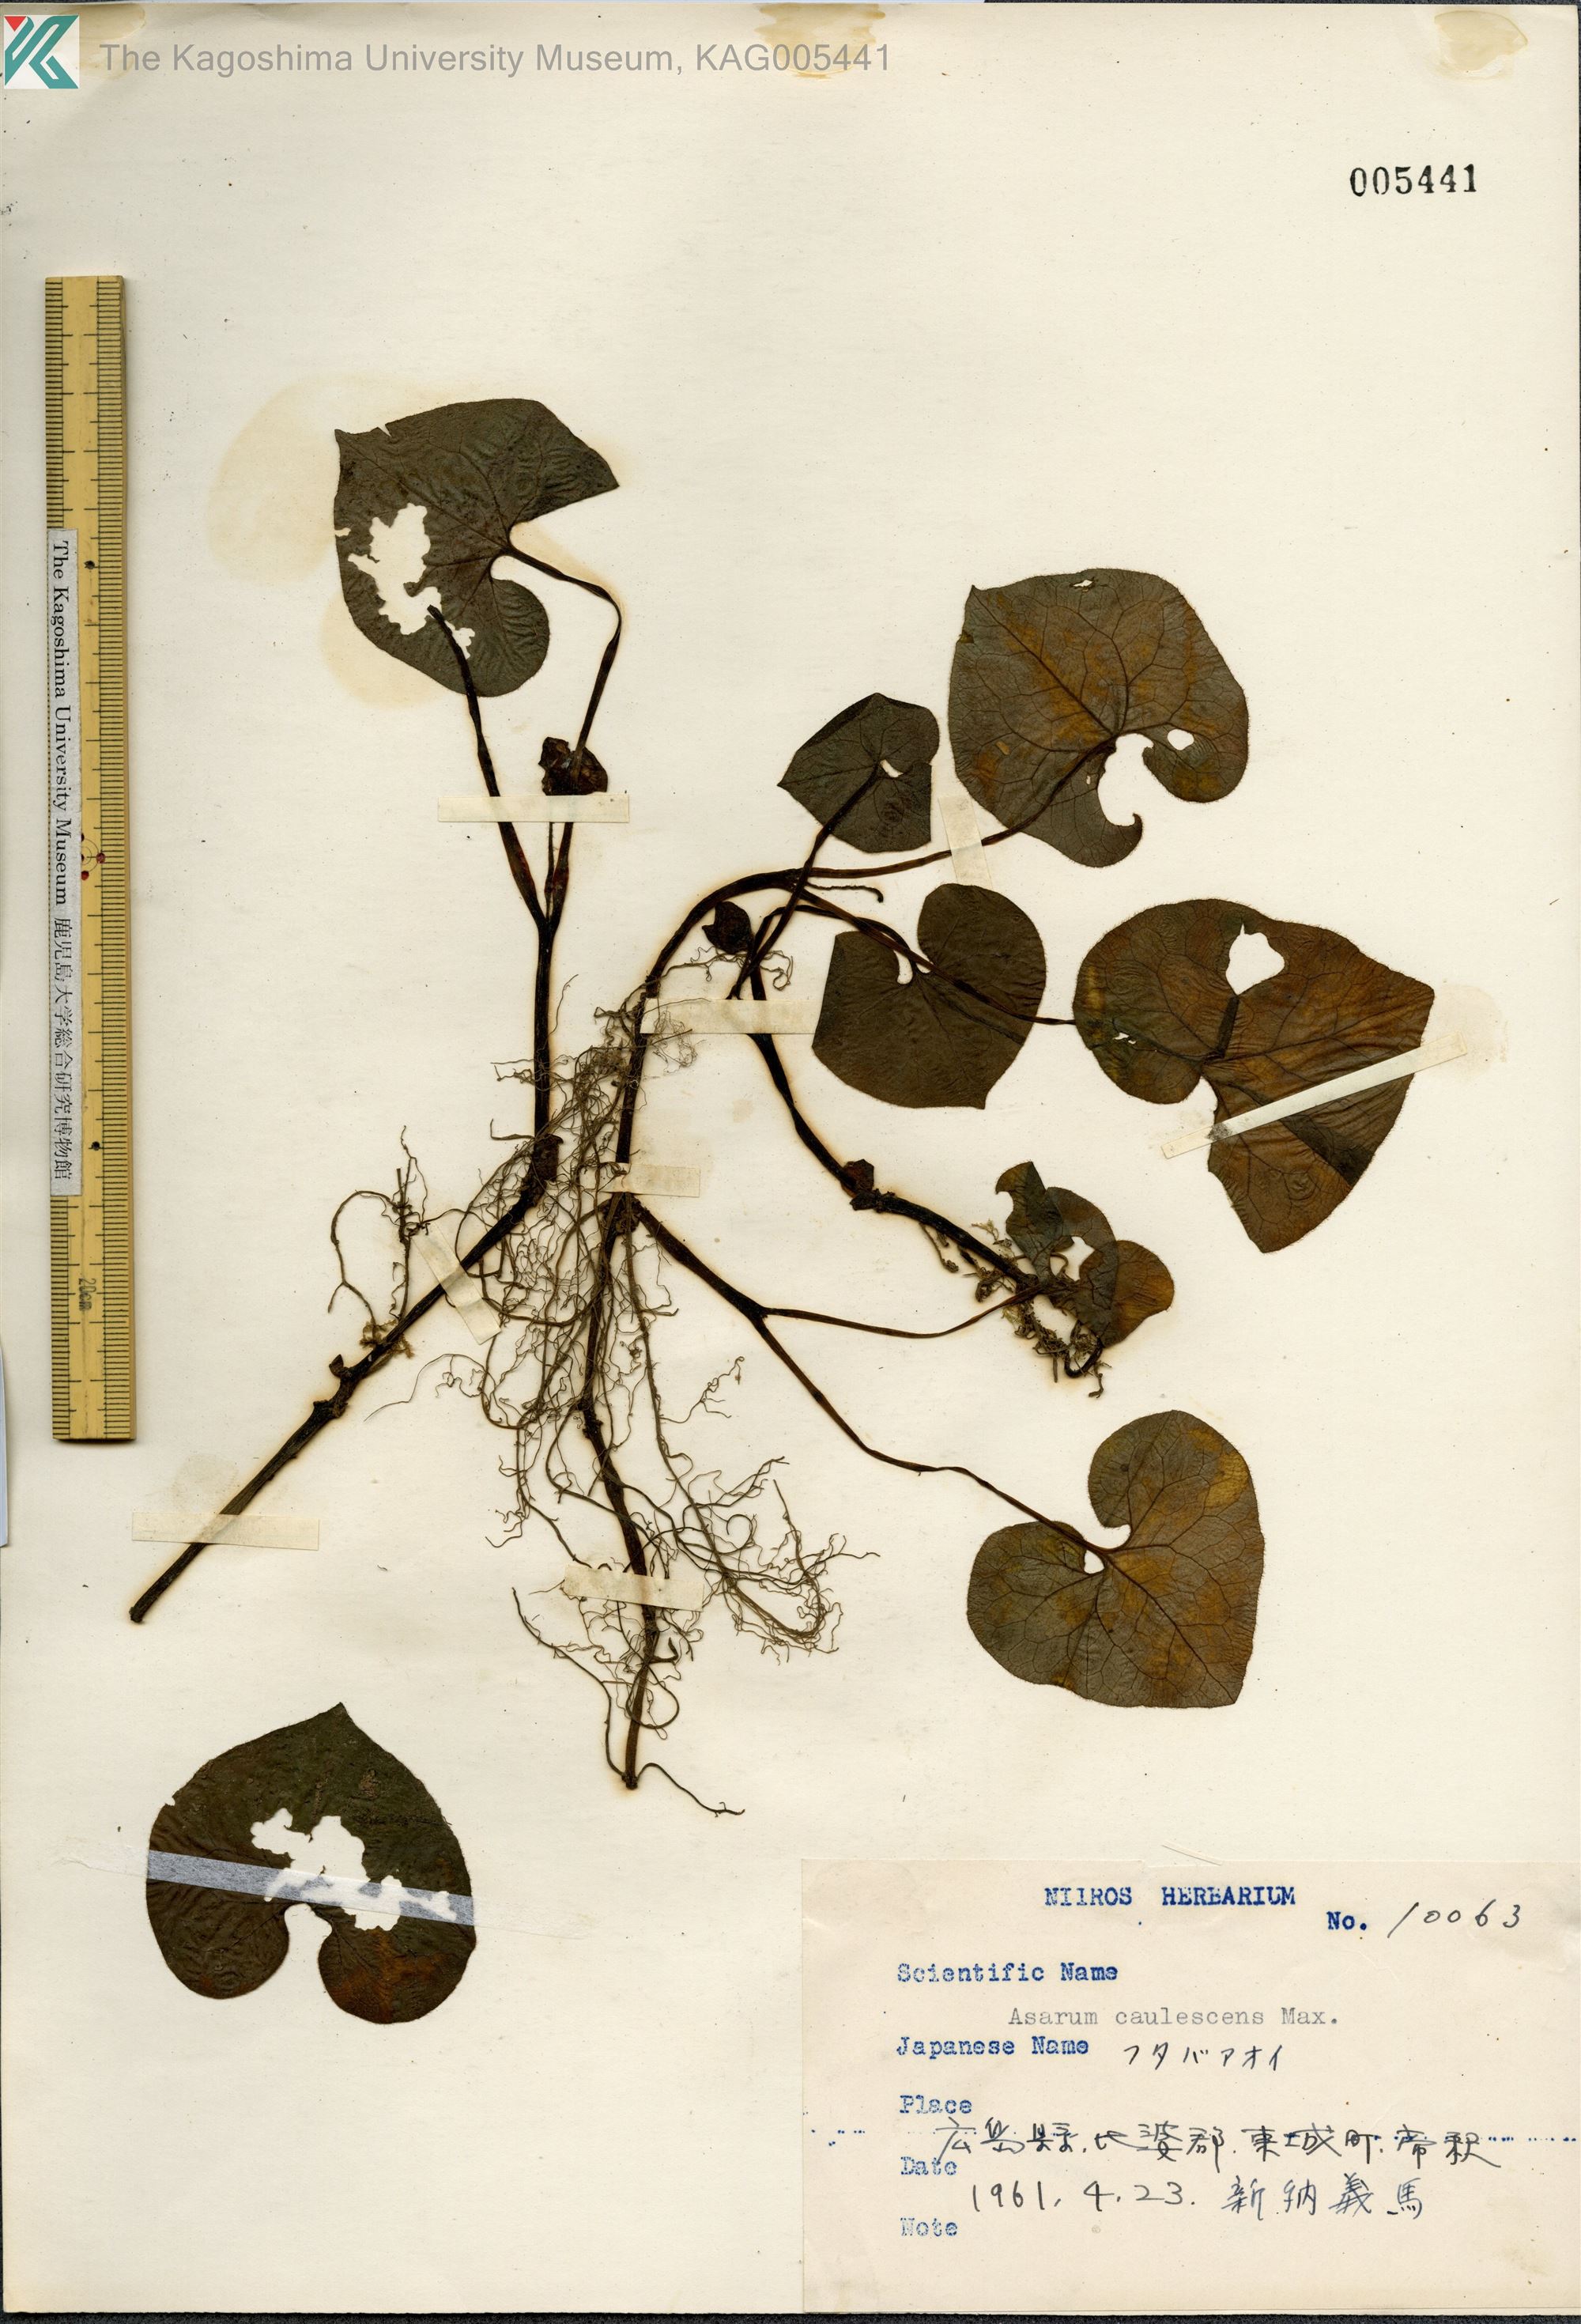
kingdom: Plantae
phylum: Tracheophyta
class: Magnoliopsida
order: Piperales
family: Aristolochiaceae
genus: Asarum
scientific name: Asarum caulescens
